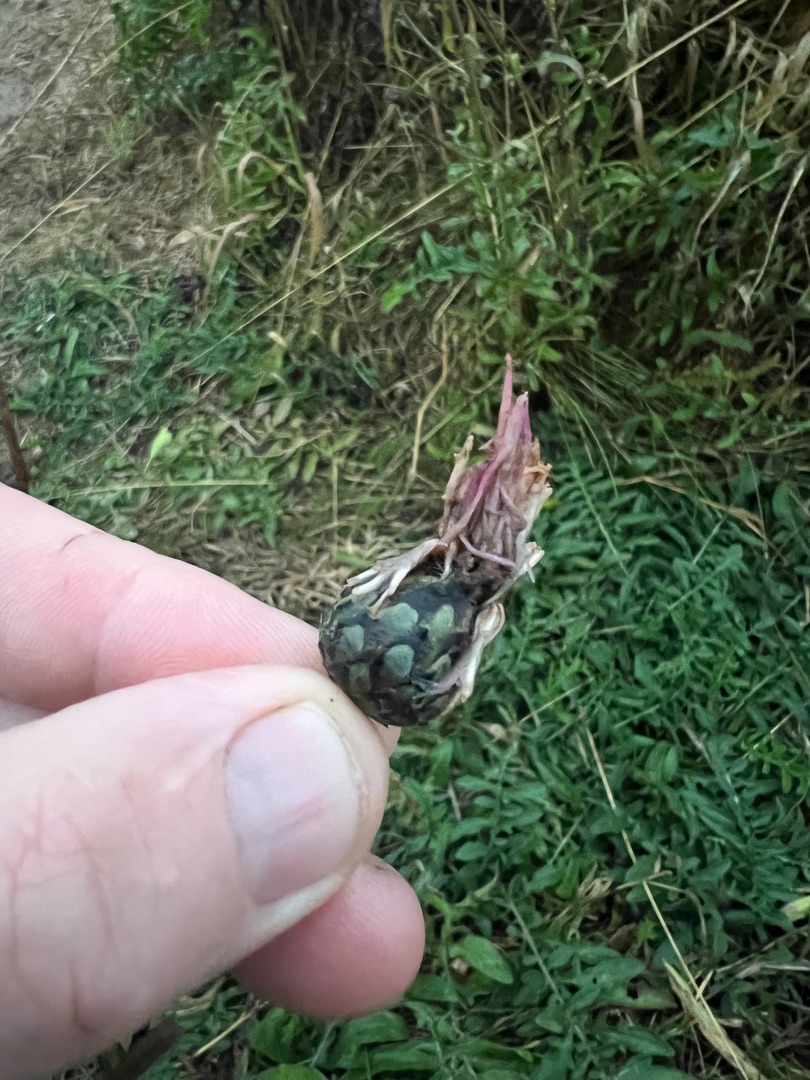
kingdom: Plantae
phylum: Tracheophyta
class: Magnoliopsida
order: Asterales
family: Asteraceae
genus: Centaurea
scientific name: Centaurea scabiosa
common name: Stor knopurt
